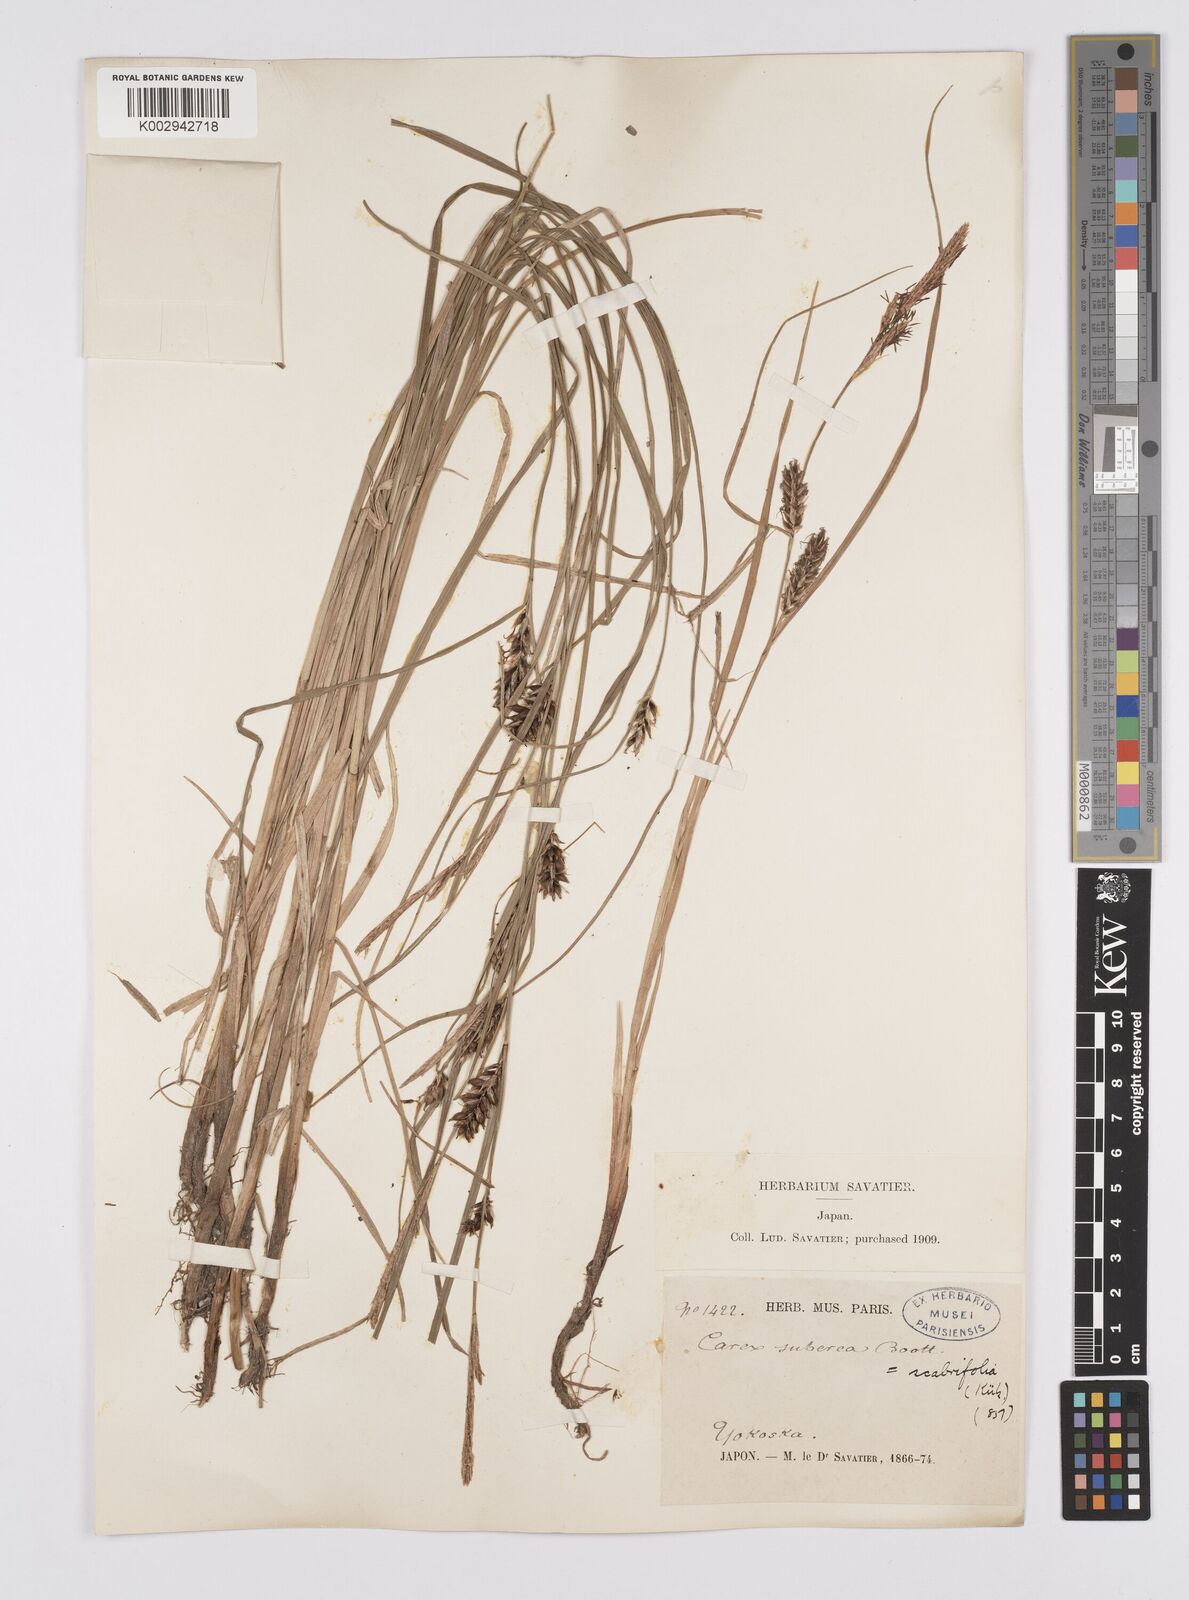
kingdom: Plantae
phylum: Tracheophyta
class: Liliopsida
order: Poales
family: Cyperaceae
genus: Carex
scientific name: Carex scabrifolia
